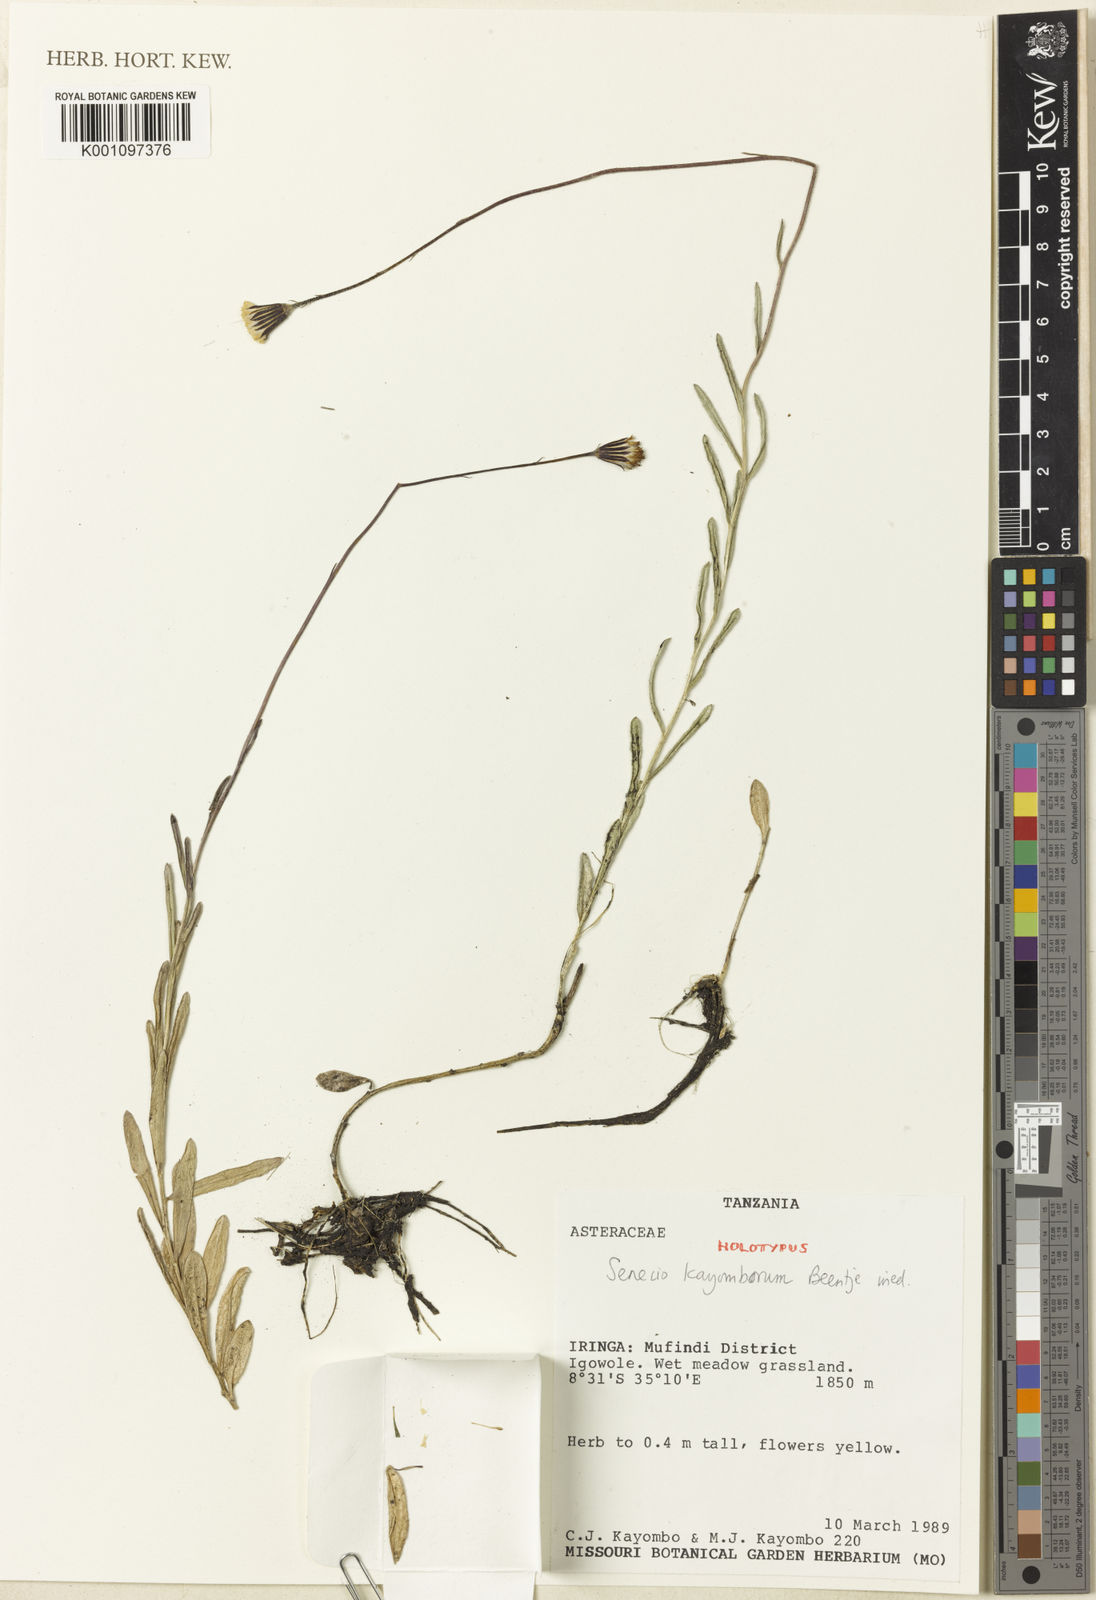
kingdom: Plantae
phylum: Tracheophyta
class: Magnoliopsida
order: Asterales
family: Asteraceae
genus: Senecio
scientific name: Senecio kayomborum
